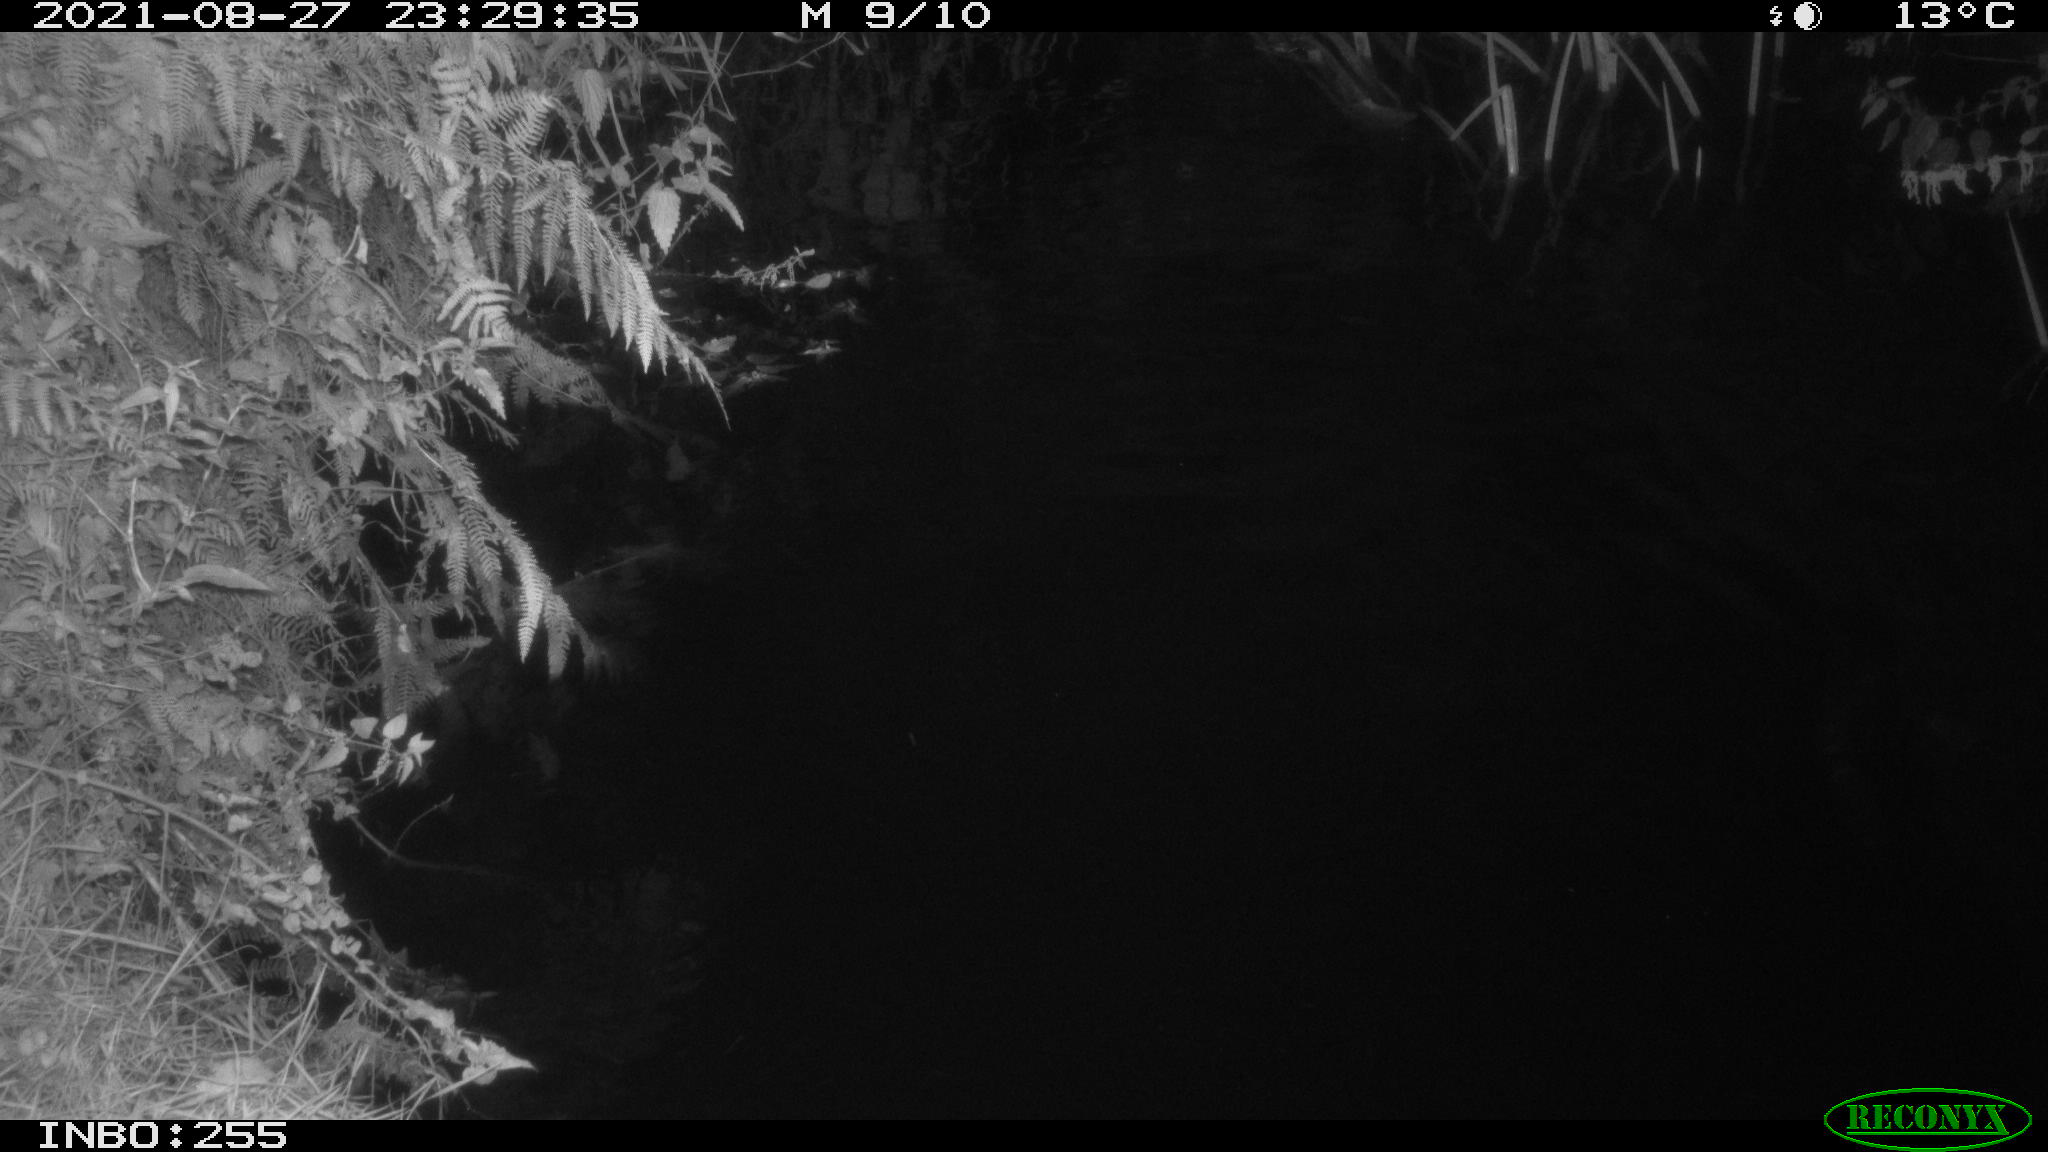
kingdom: Animalia
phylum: Chordata
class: Mammalia
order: Carnivora
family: Procyonidae
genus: Procyon
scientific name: Procyon lotor
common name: Raccoon
